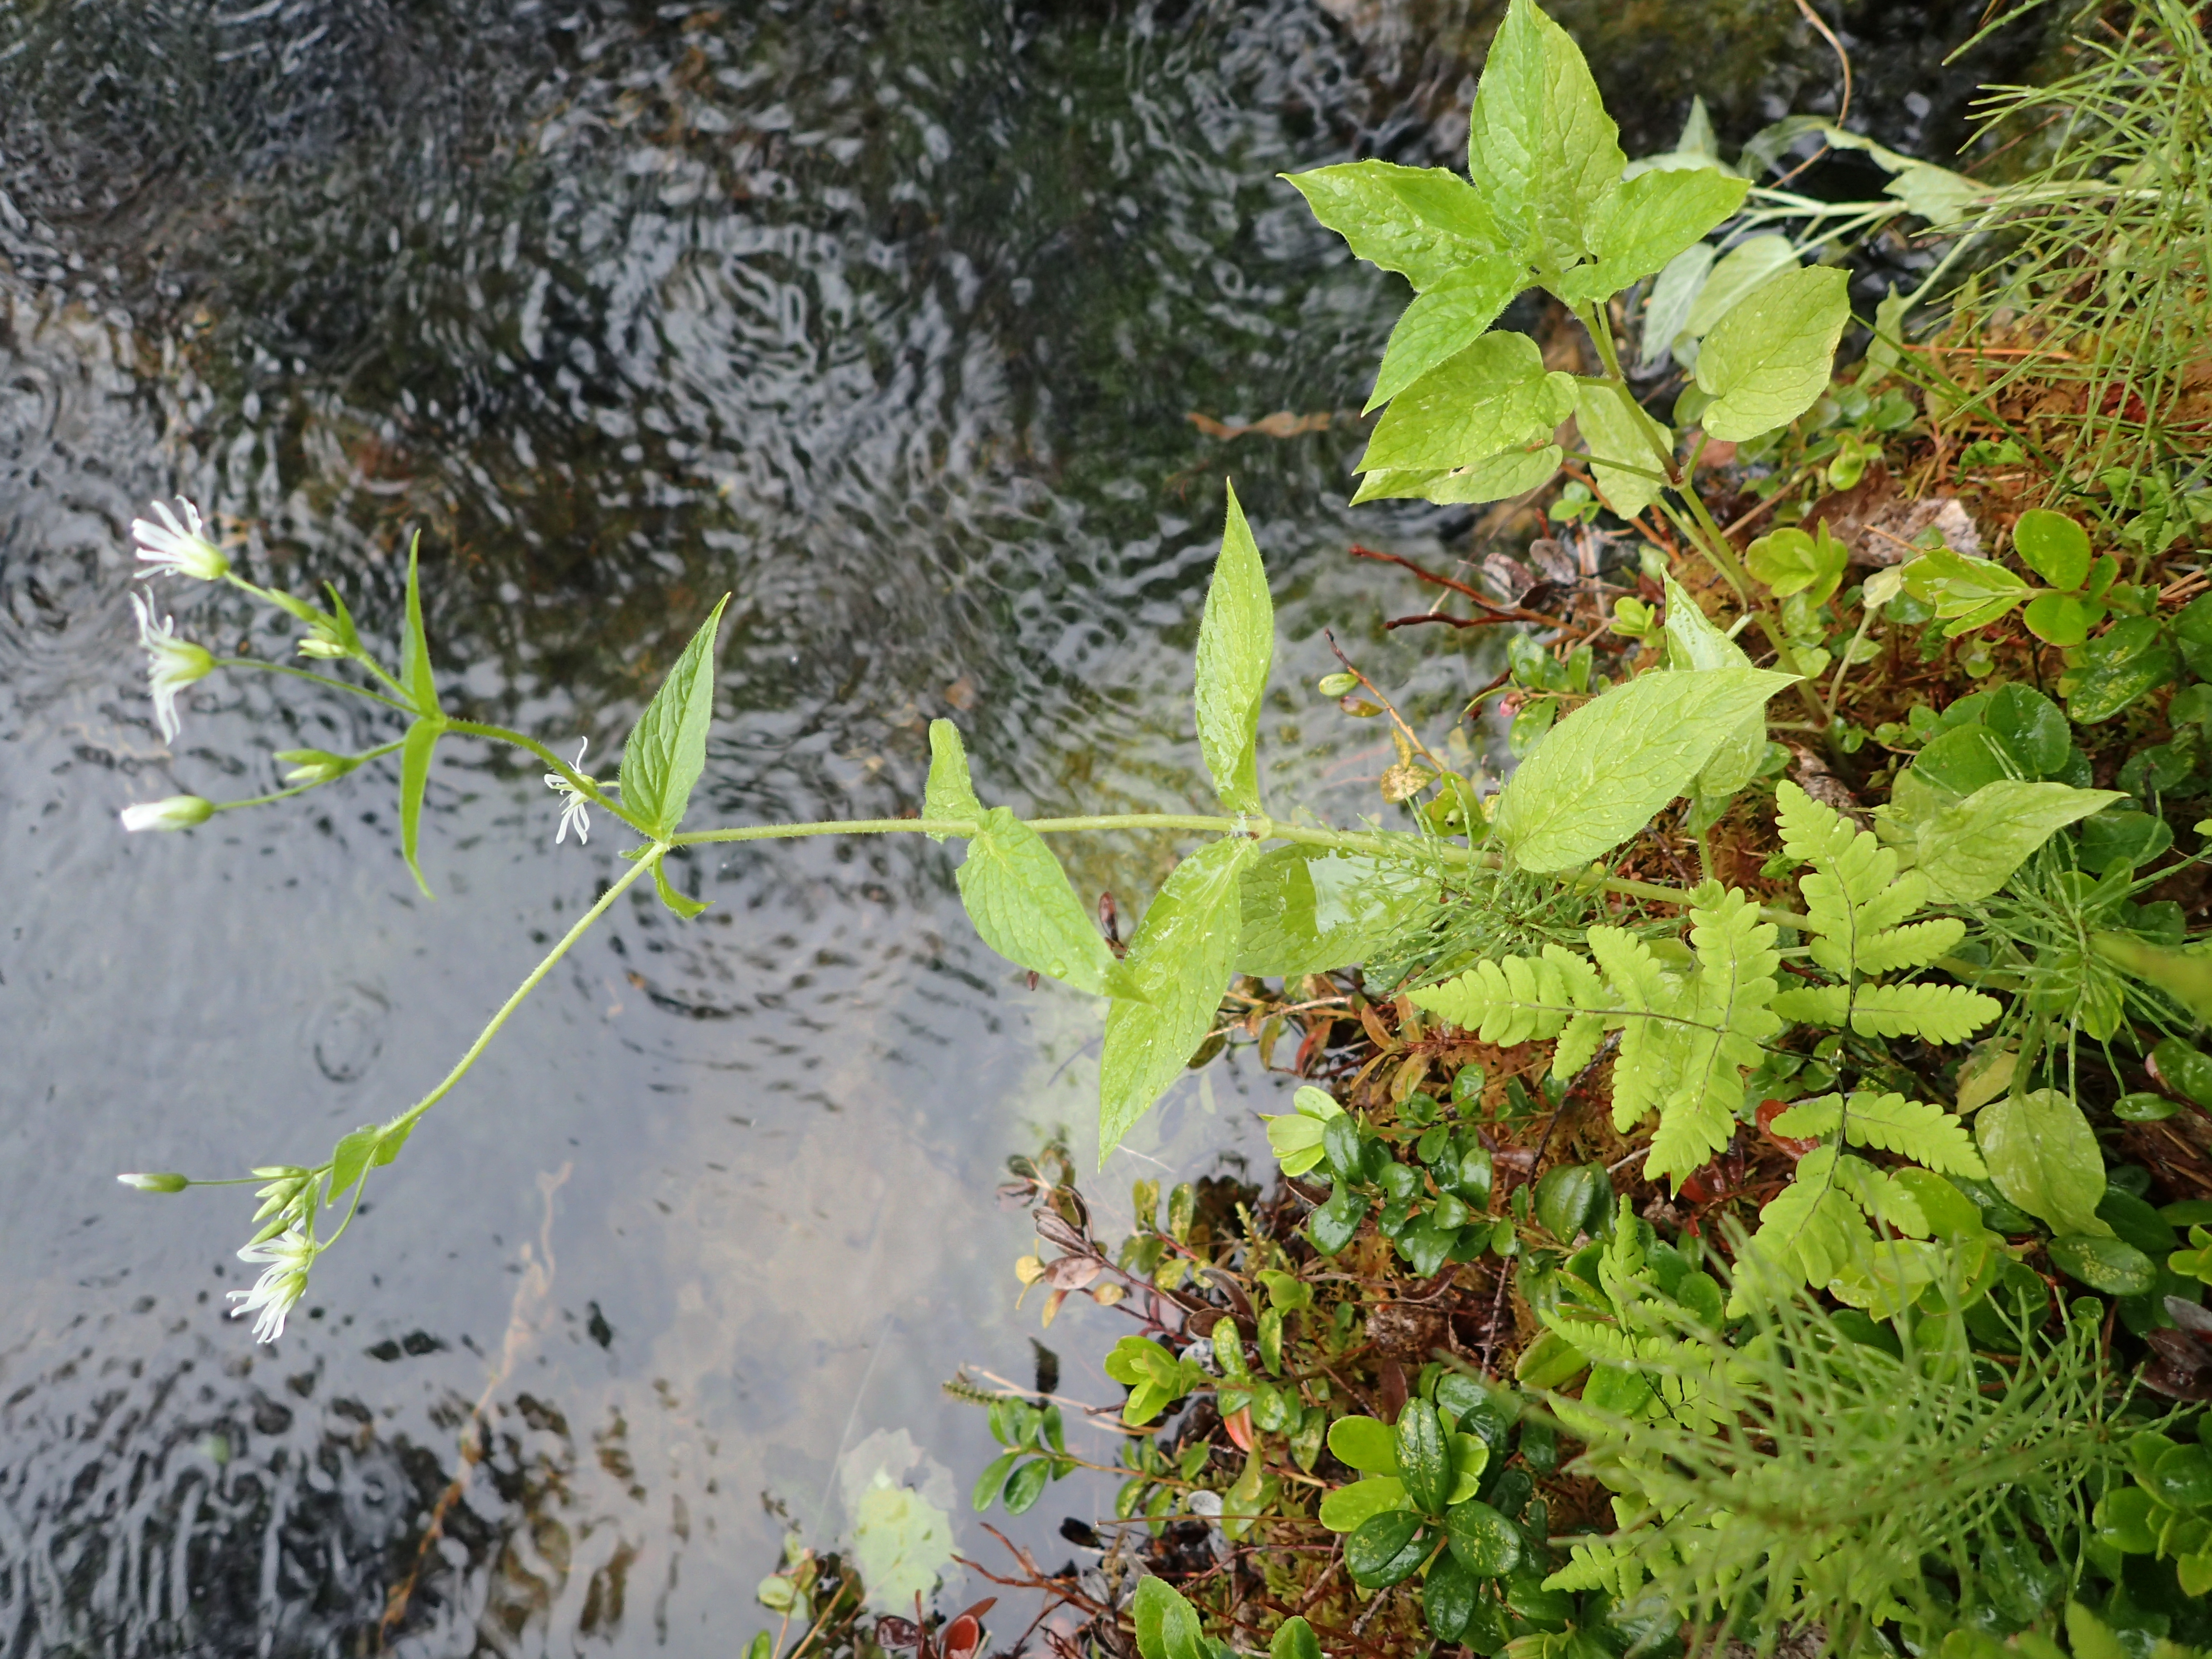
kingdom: Plantae
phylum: Tracheophyta
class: Magnoliopsida
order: Caryophyllales
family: Caryophyllaceae
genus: Stellaria
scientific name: Stellaria nemorum
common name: Wood stitchwort
